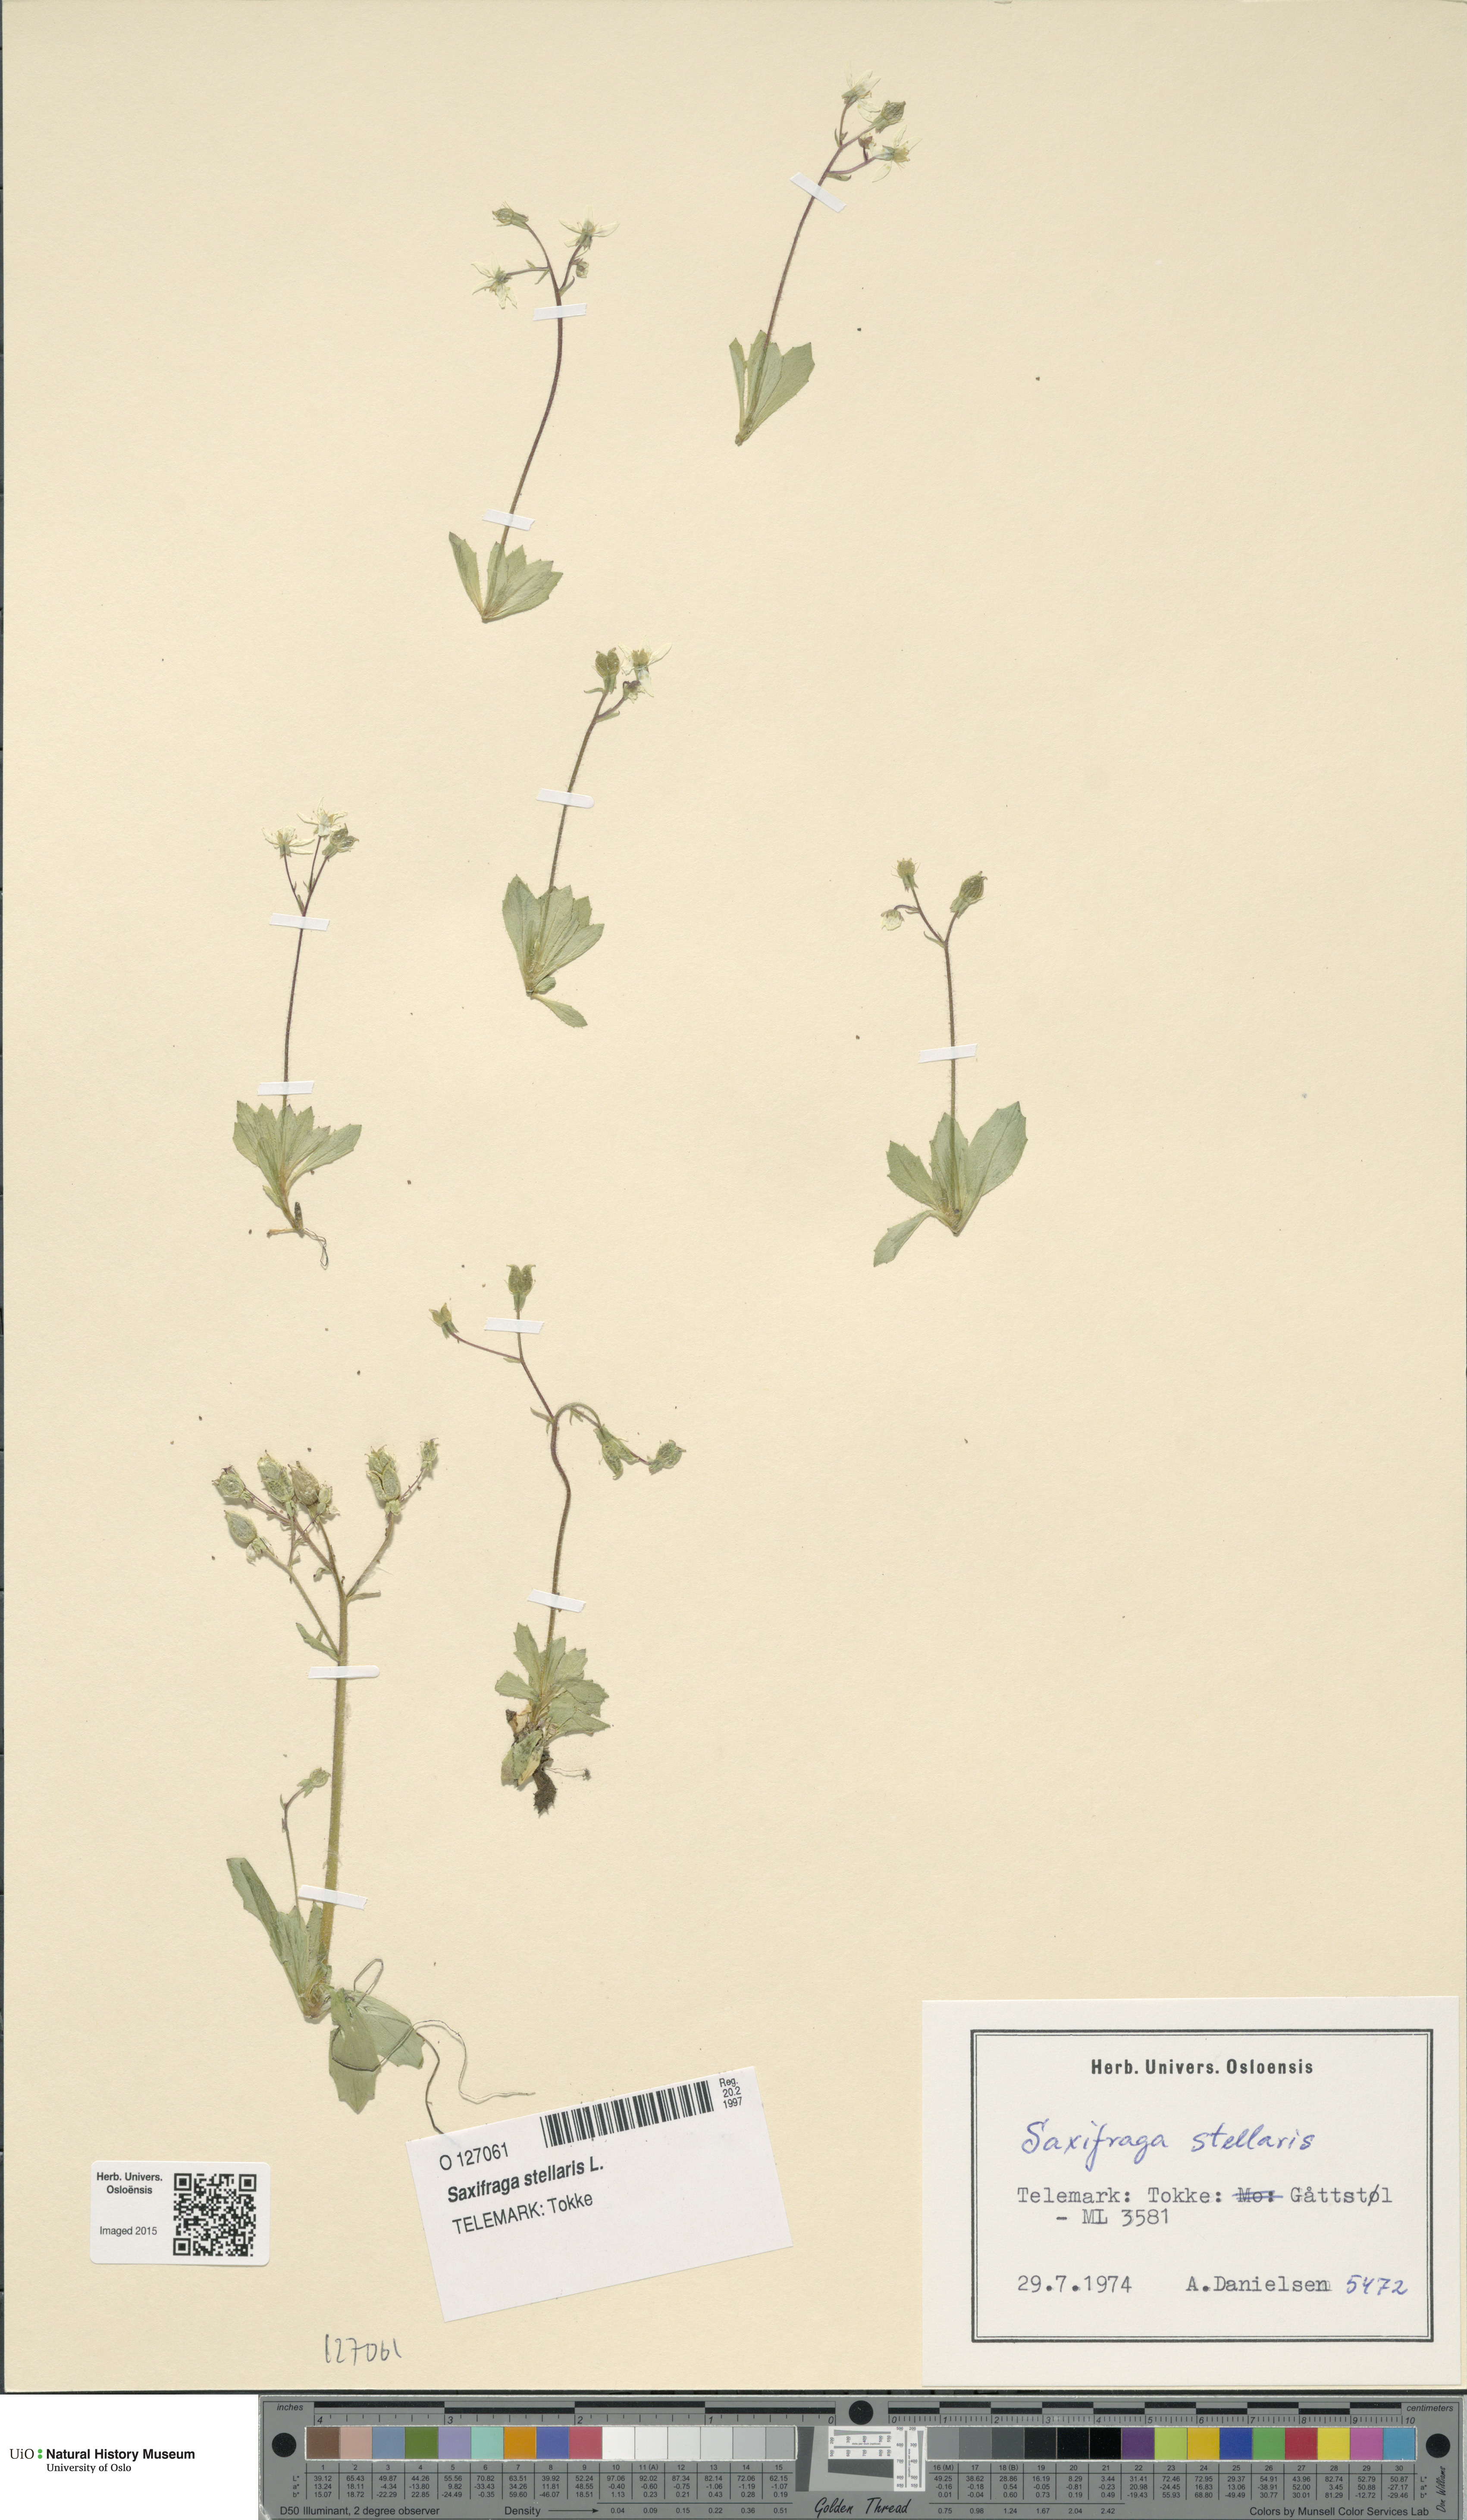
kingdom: Plantae
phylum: Tracheophyta
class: Magnoliopsida
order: Saxifragales
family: Saxifragaceae
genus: Micranthes
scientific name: Micranthes stellaris
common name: Starry saxifrage
